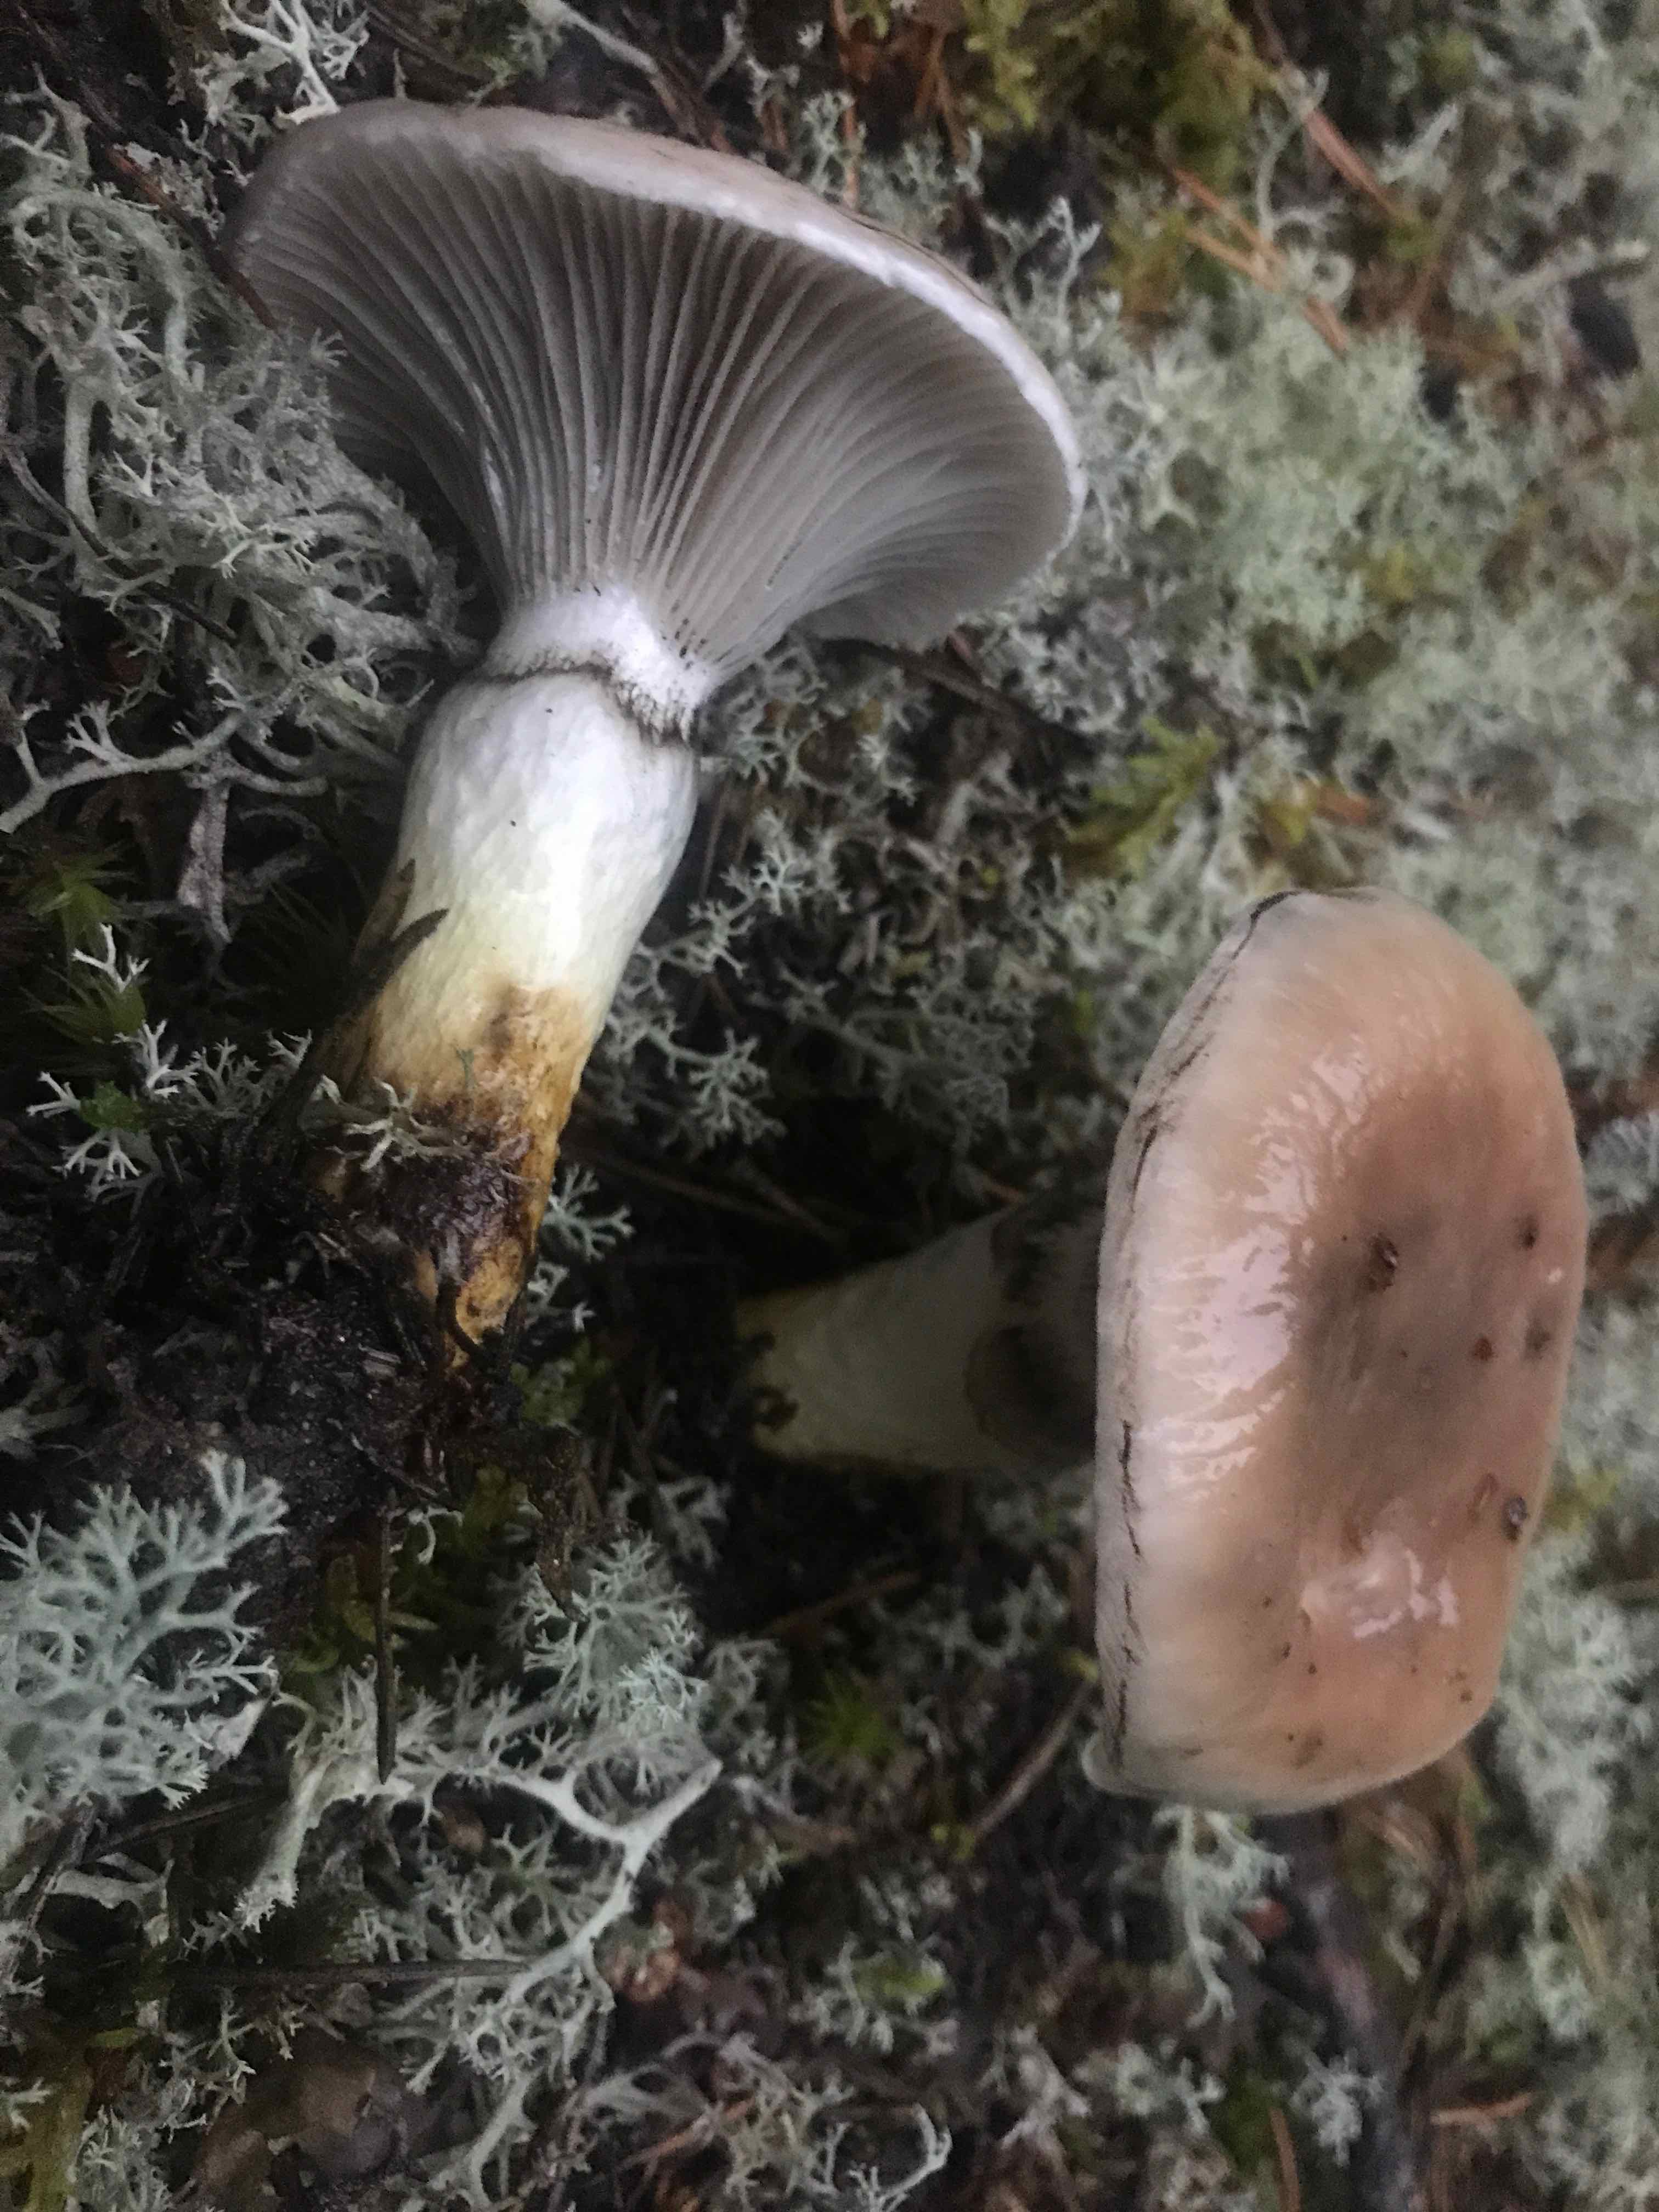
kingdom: Fungi
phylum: Basidiomycota
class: Agaricomycetes
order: Boletales
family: Gomphidiaceae
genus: Gomphidius
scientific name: Gomphidius glutinosus
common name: grå slimslør
